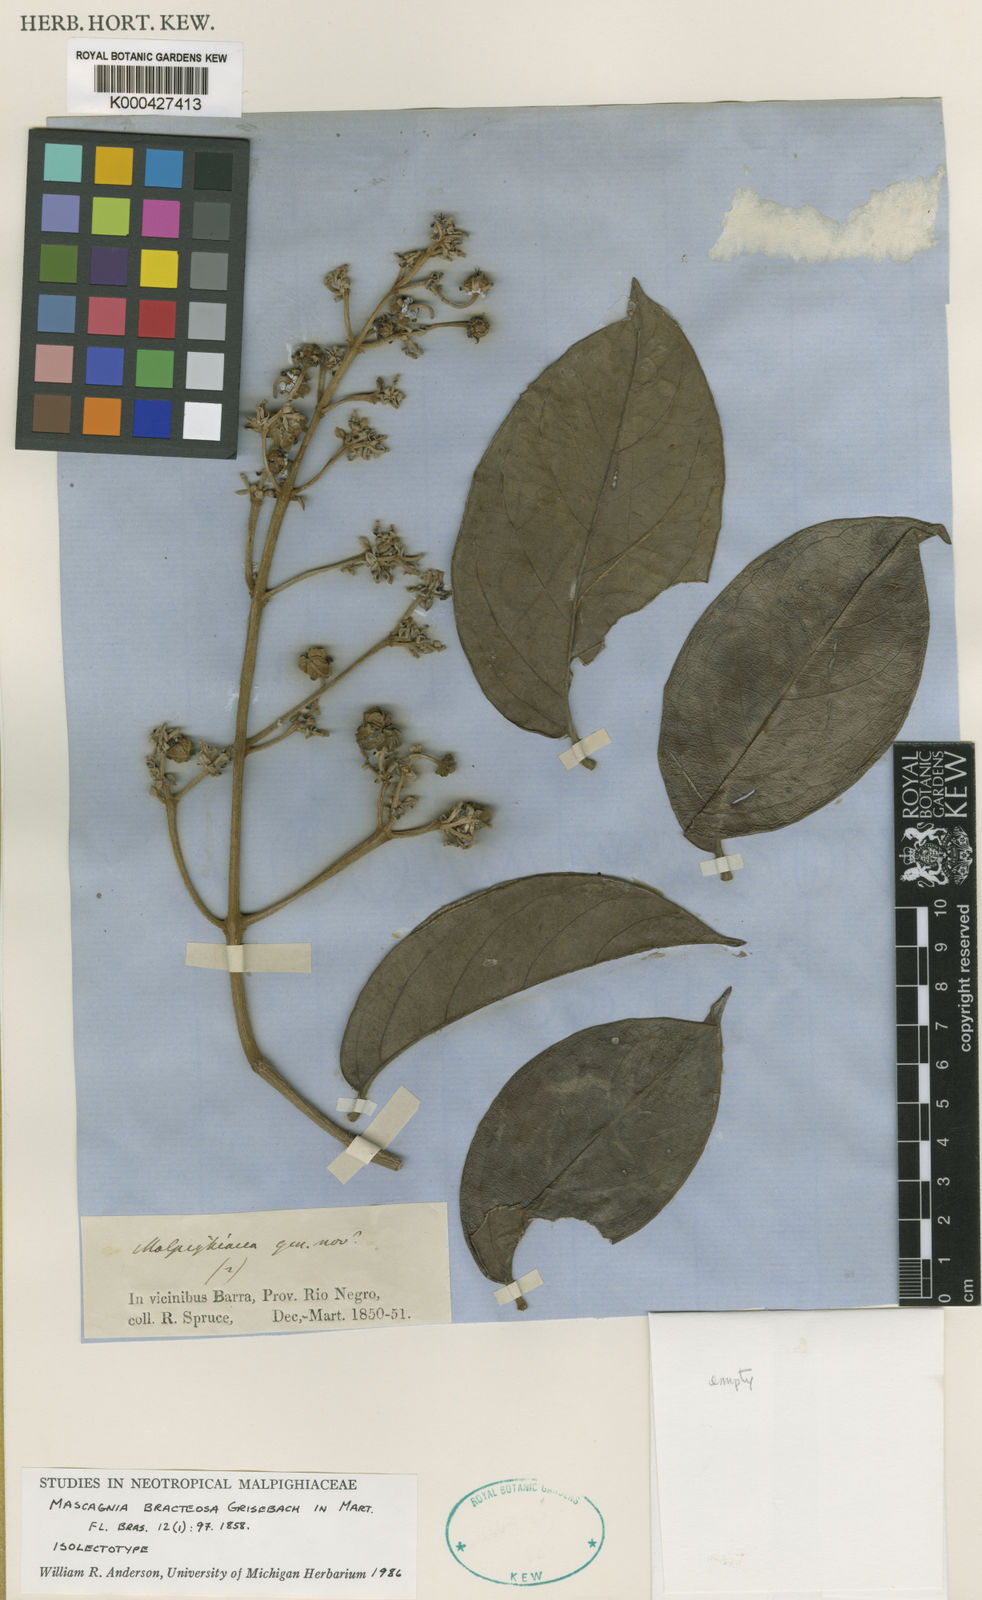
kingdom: Plantae
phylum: Tracheophyta
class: Magnoliopsida
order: Malpighiales
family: Malpighiaceae
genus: Malpighiodes
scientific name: Malpighiodes bracteosa
